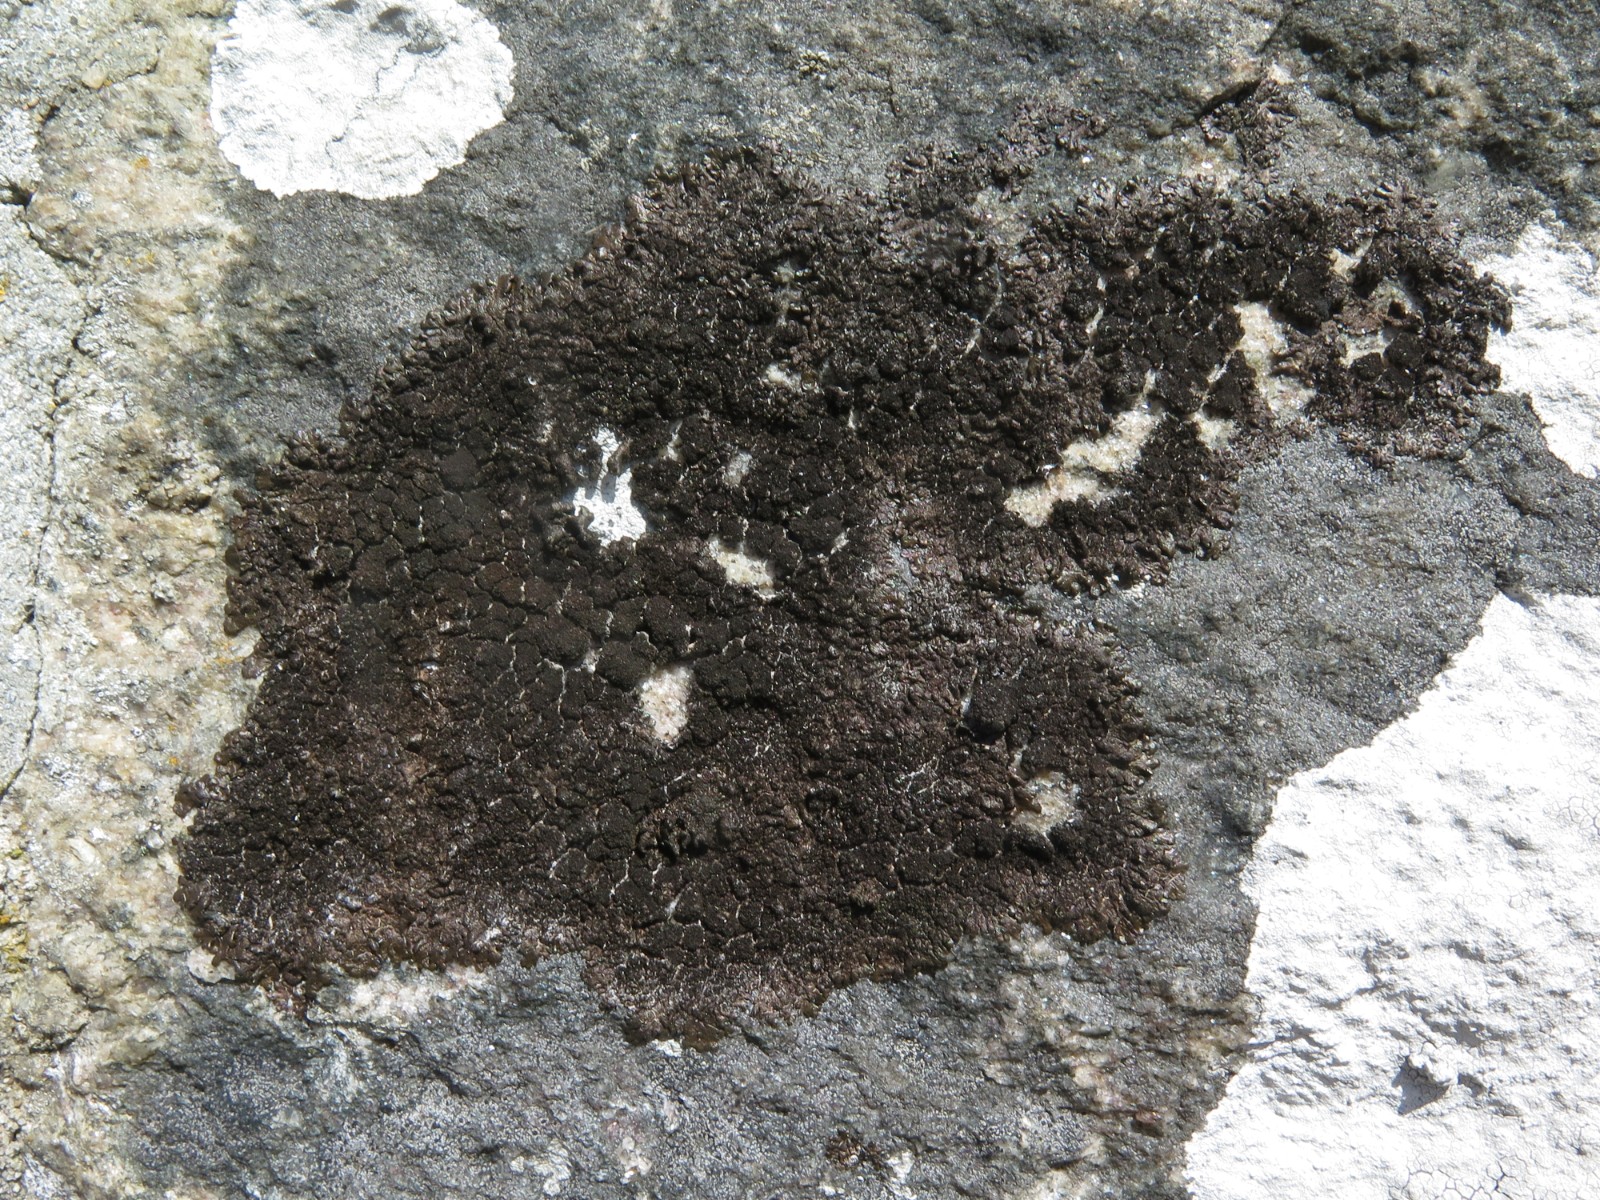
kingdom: Fungi
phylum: Ascomycota
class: Lecanoromycetes
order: Lecanorales
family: Parmeliaceae
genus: Melanelixia
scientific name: Melanelixia fuliginosa
